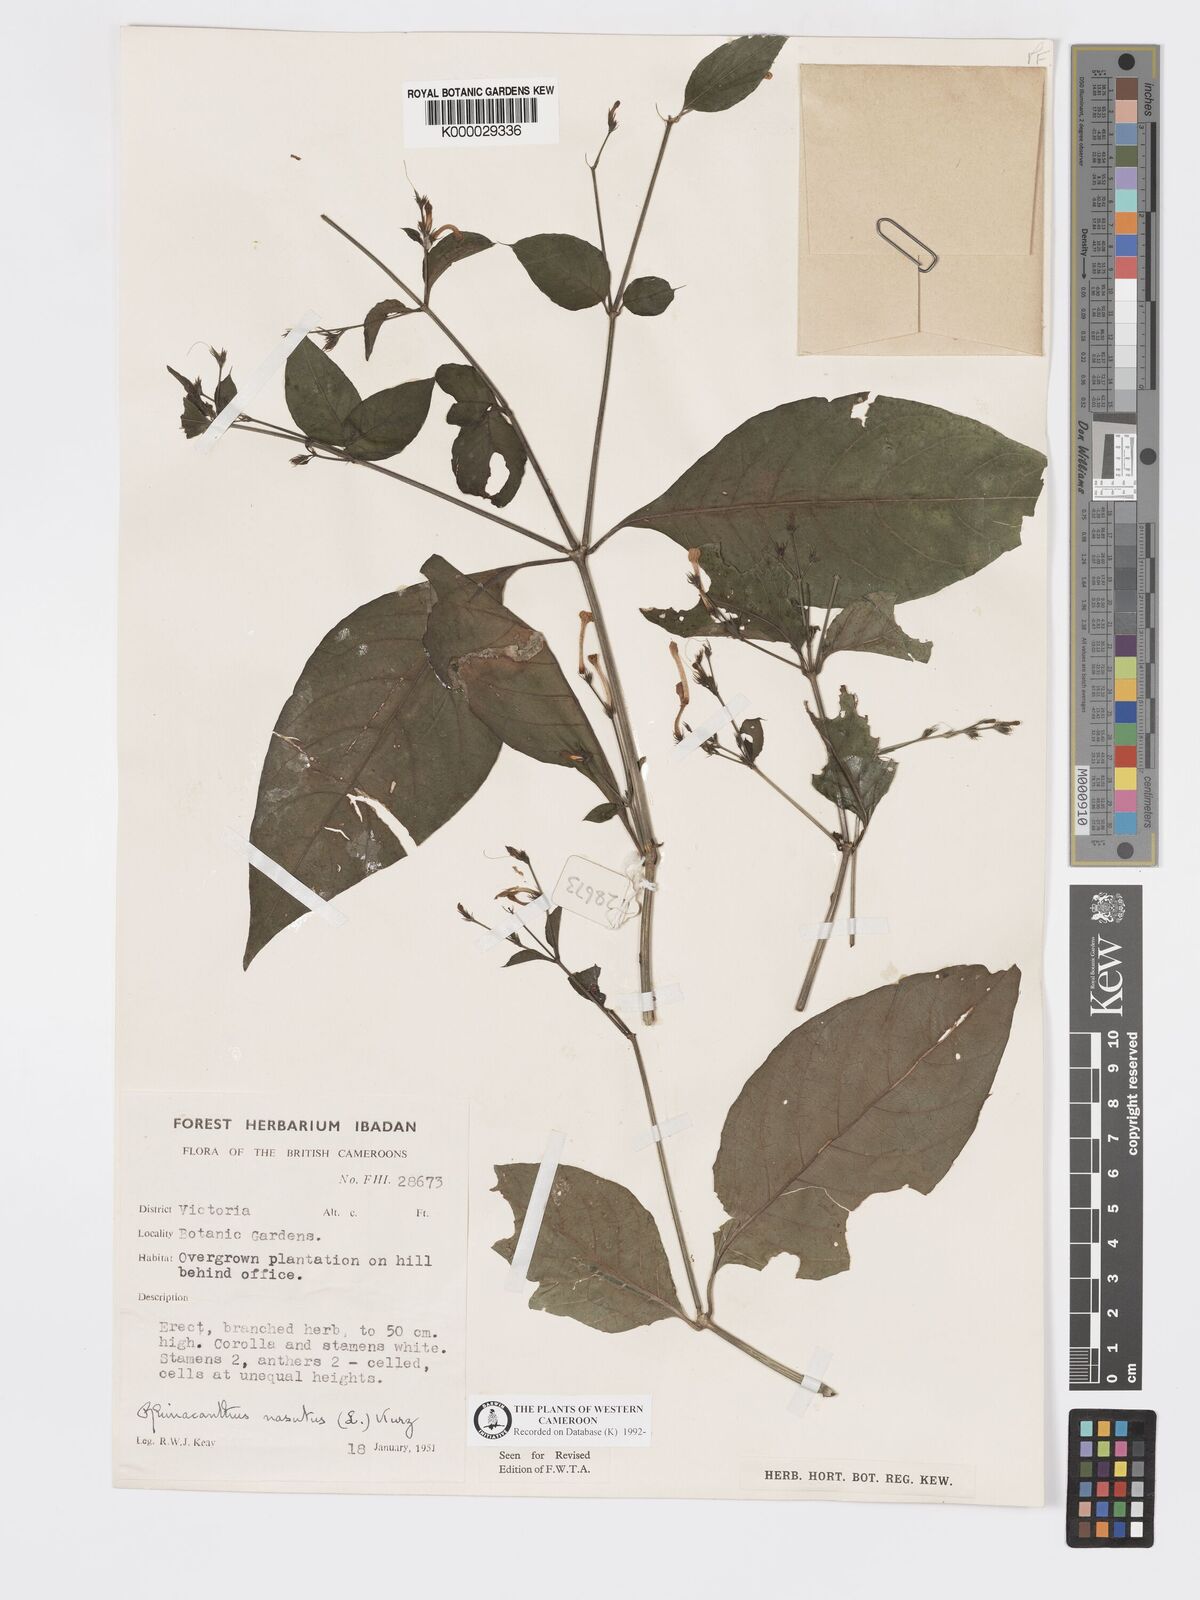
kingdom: Plantae
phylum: Tracheophyta
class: Magnoliopsida
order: Lamiales
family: Acanthaceae
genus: Rhinacanthus
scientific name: Rhinacanthus virens
